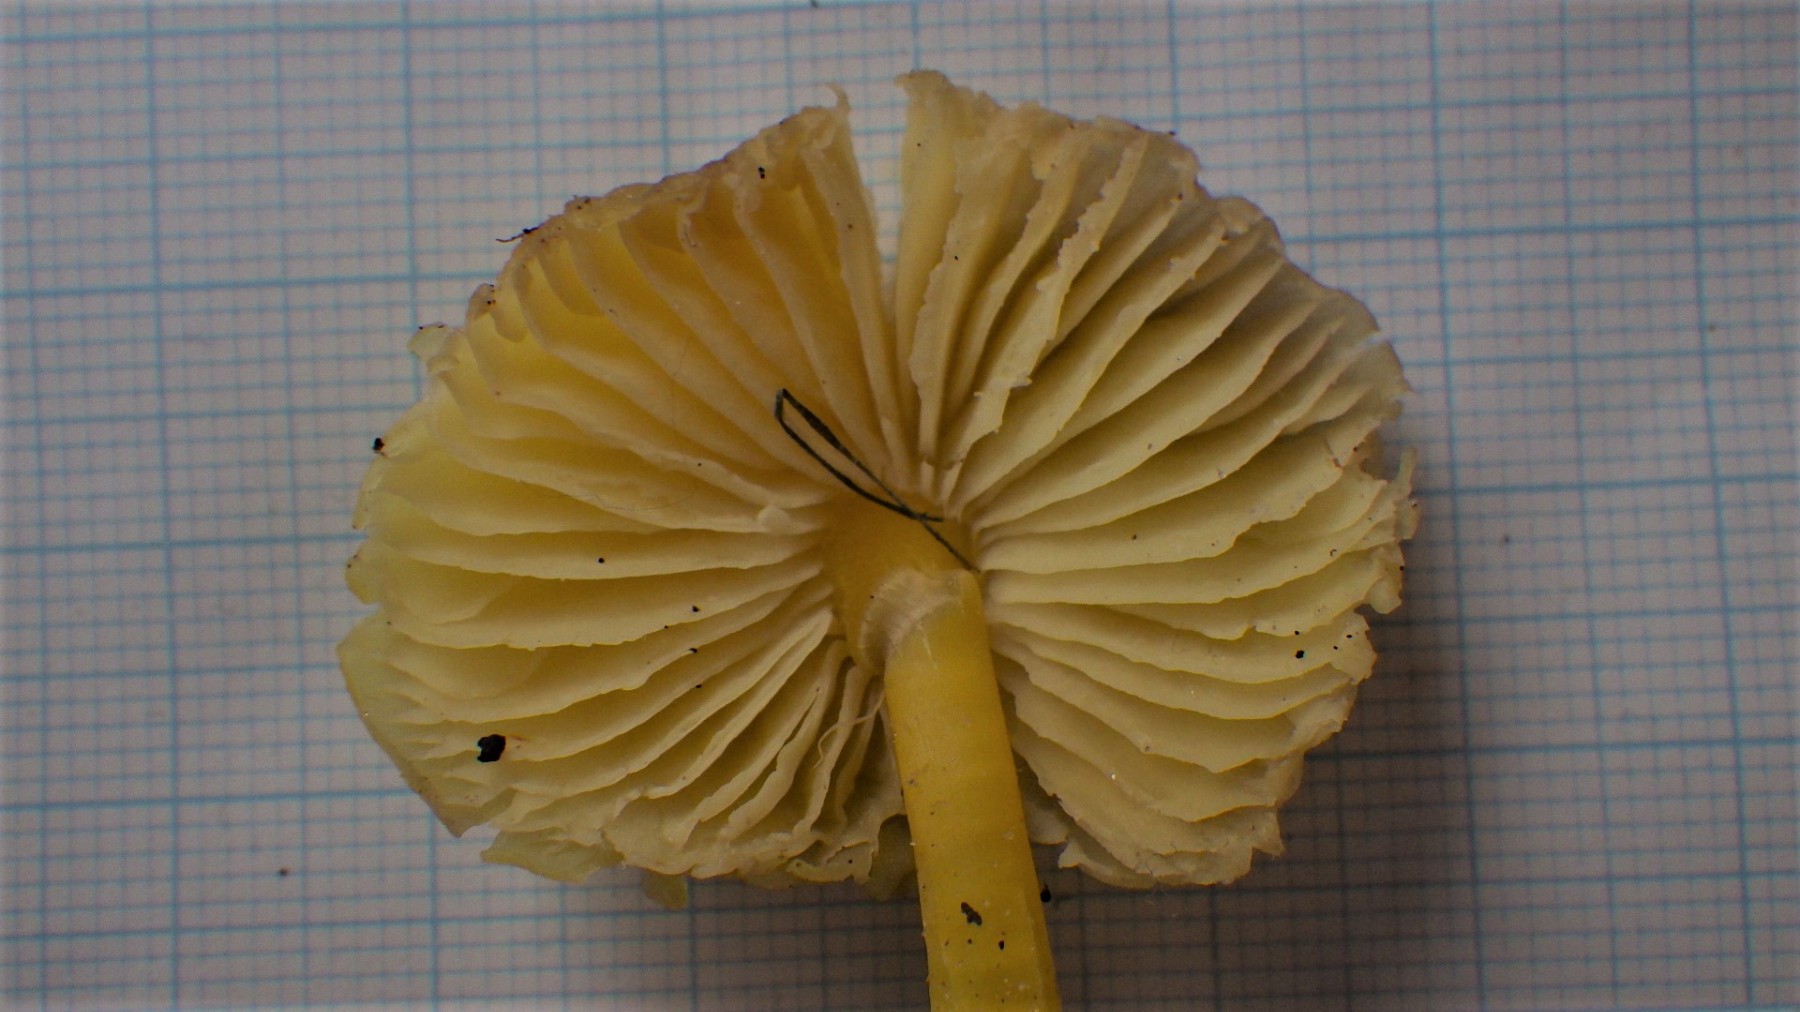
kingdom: Fungi
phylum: Basidiomycota
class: Agaricomycetes
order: Agaricales
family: Hygrophoraceae
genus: Hygrocybe
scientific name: Hygrocybe chlorophana
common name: gul vokshat
